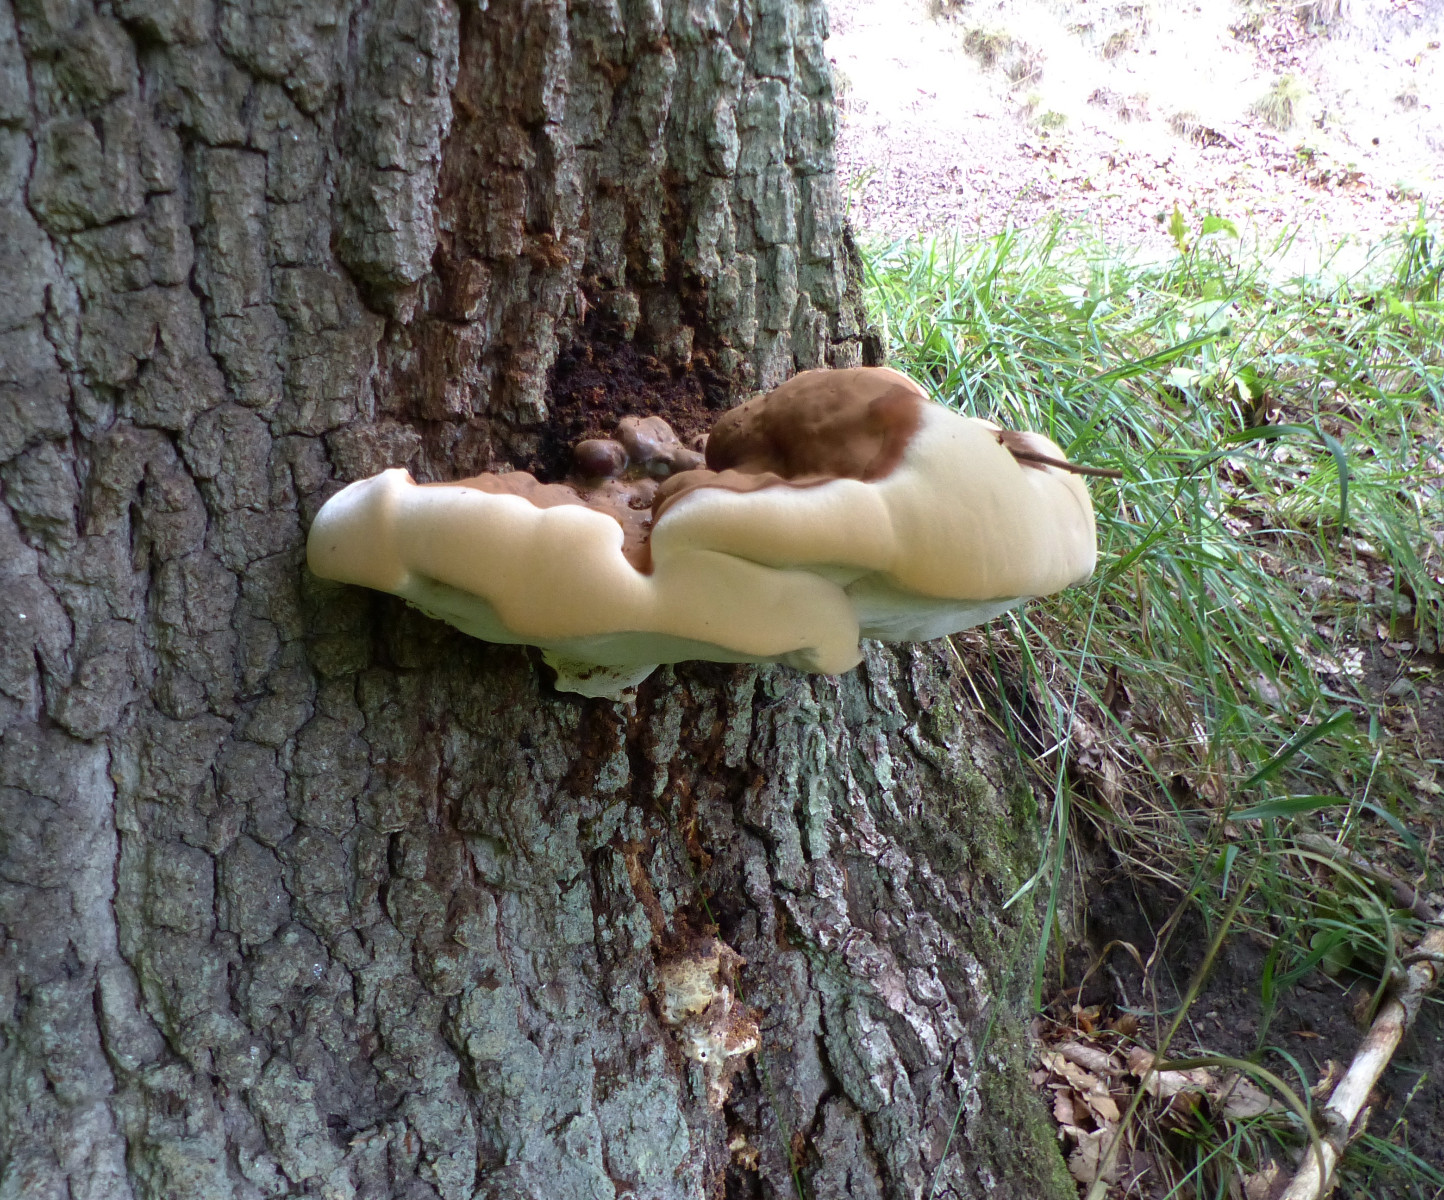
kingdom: Fungi
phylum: Basidiomycota
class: Agaricomycetes
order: Polyporales
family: Polyporaceae
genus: Ganoderma
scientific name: Ganoderma resinaceum
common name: gyldenbrun lakporesvamp
